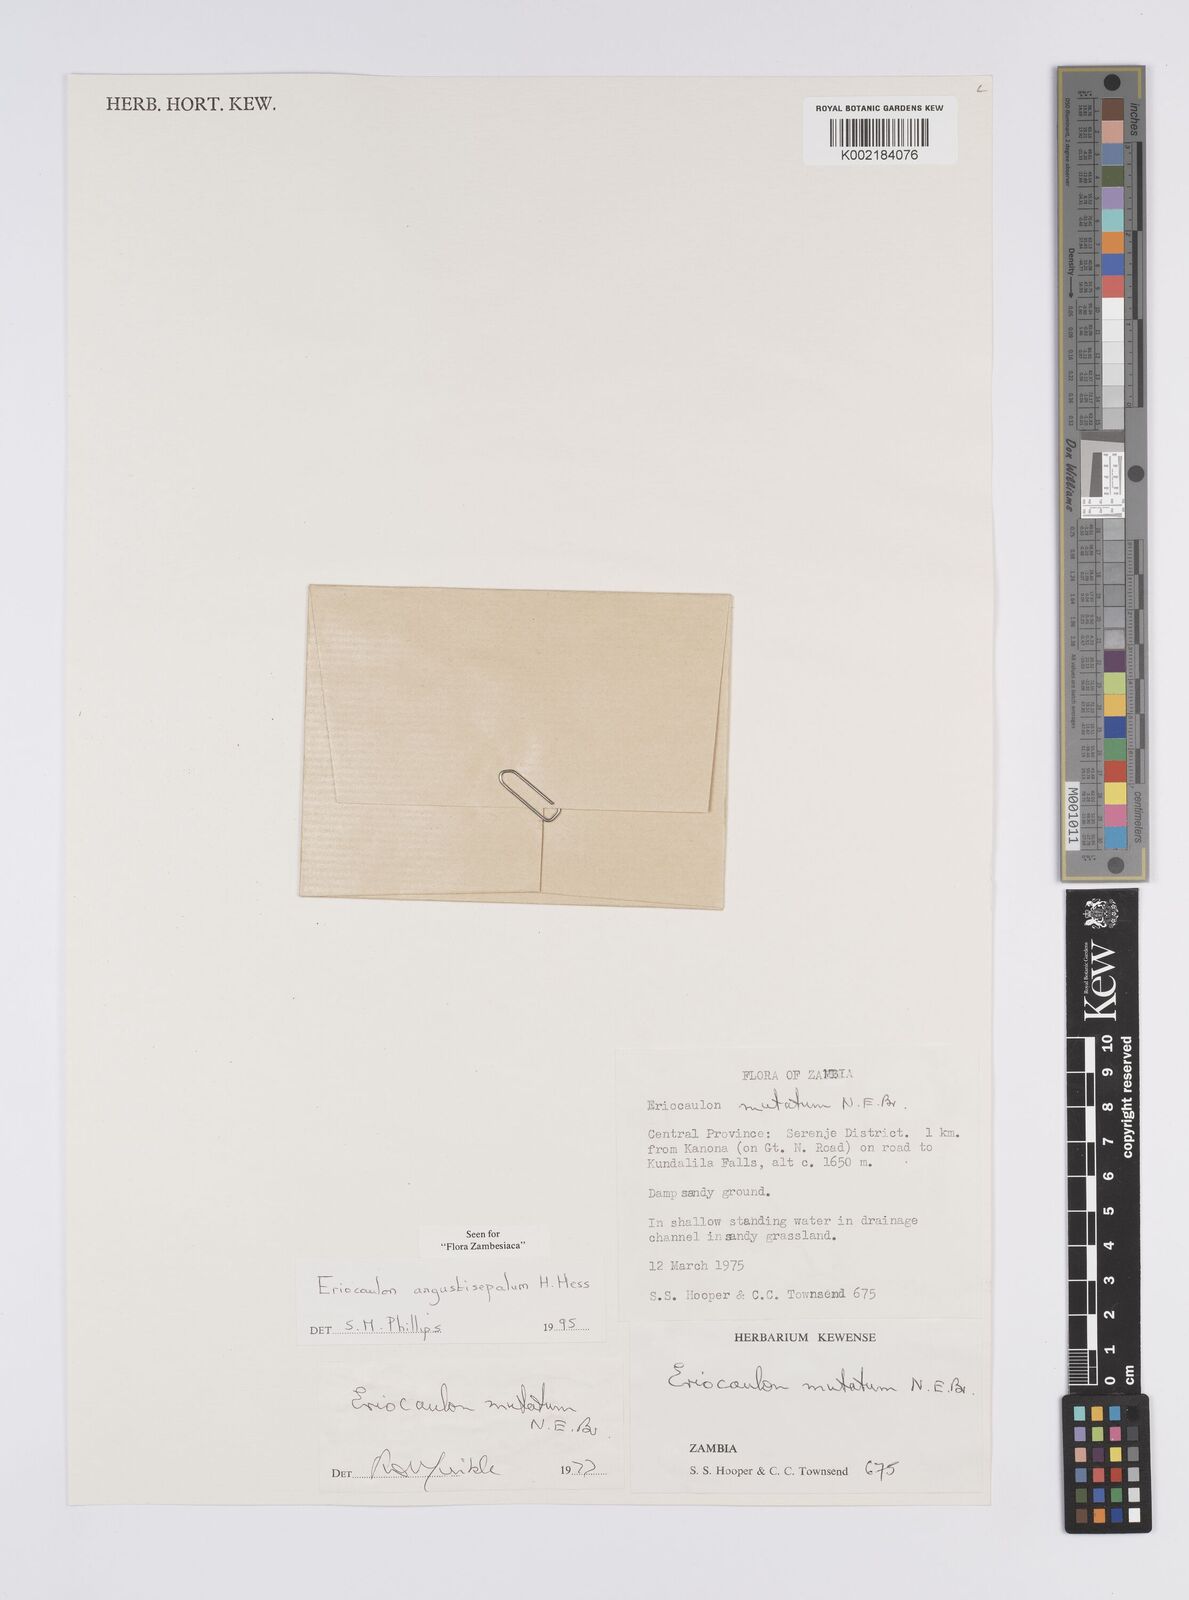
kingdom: Plantae
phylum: Tracheophyta
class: Liliopsida
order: Poales
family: Eriocaulaceae
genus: Eriocaulon
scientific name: Eriocaulon mutatum
